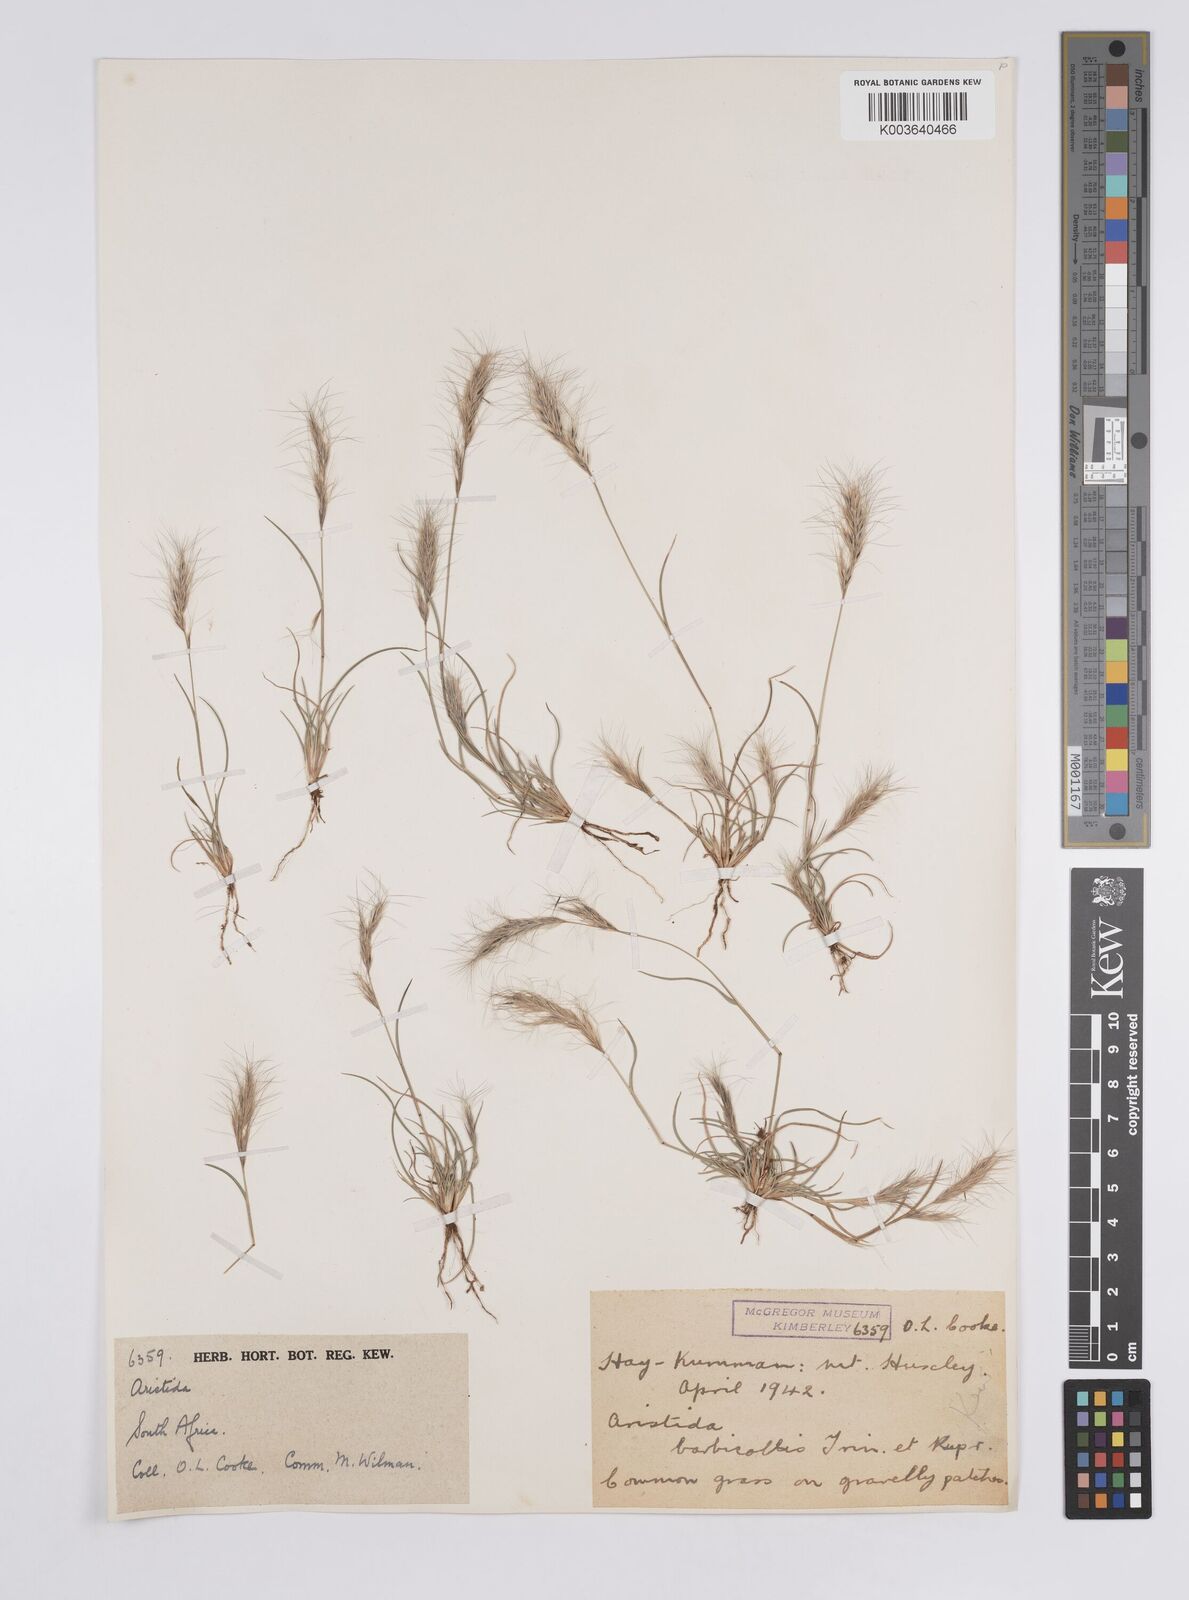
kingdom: Plantae
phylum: Tracheophyta
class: Liliopsida
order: Poales
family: Poaceae
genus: Aristida
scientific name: Aristida barbicollis
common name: Spreading prickle grass
